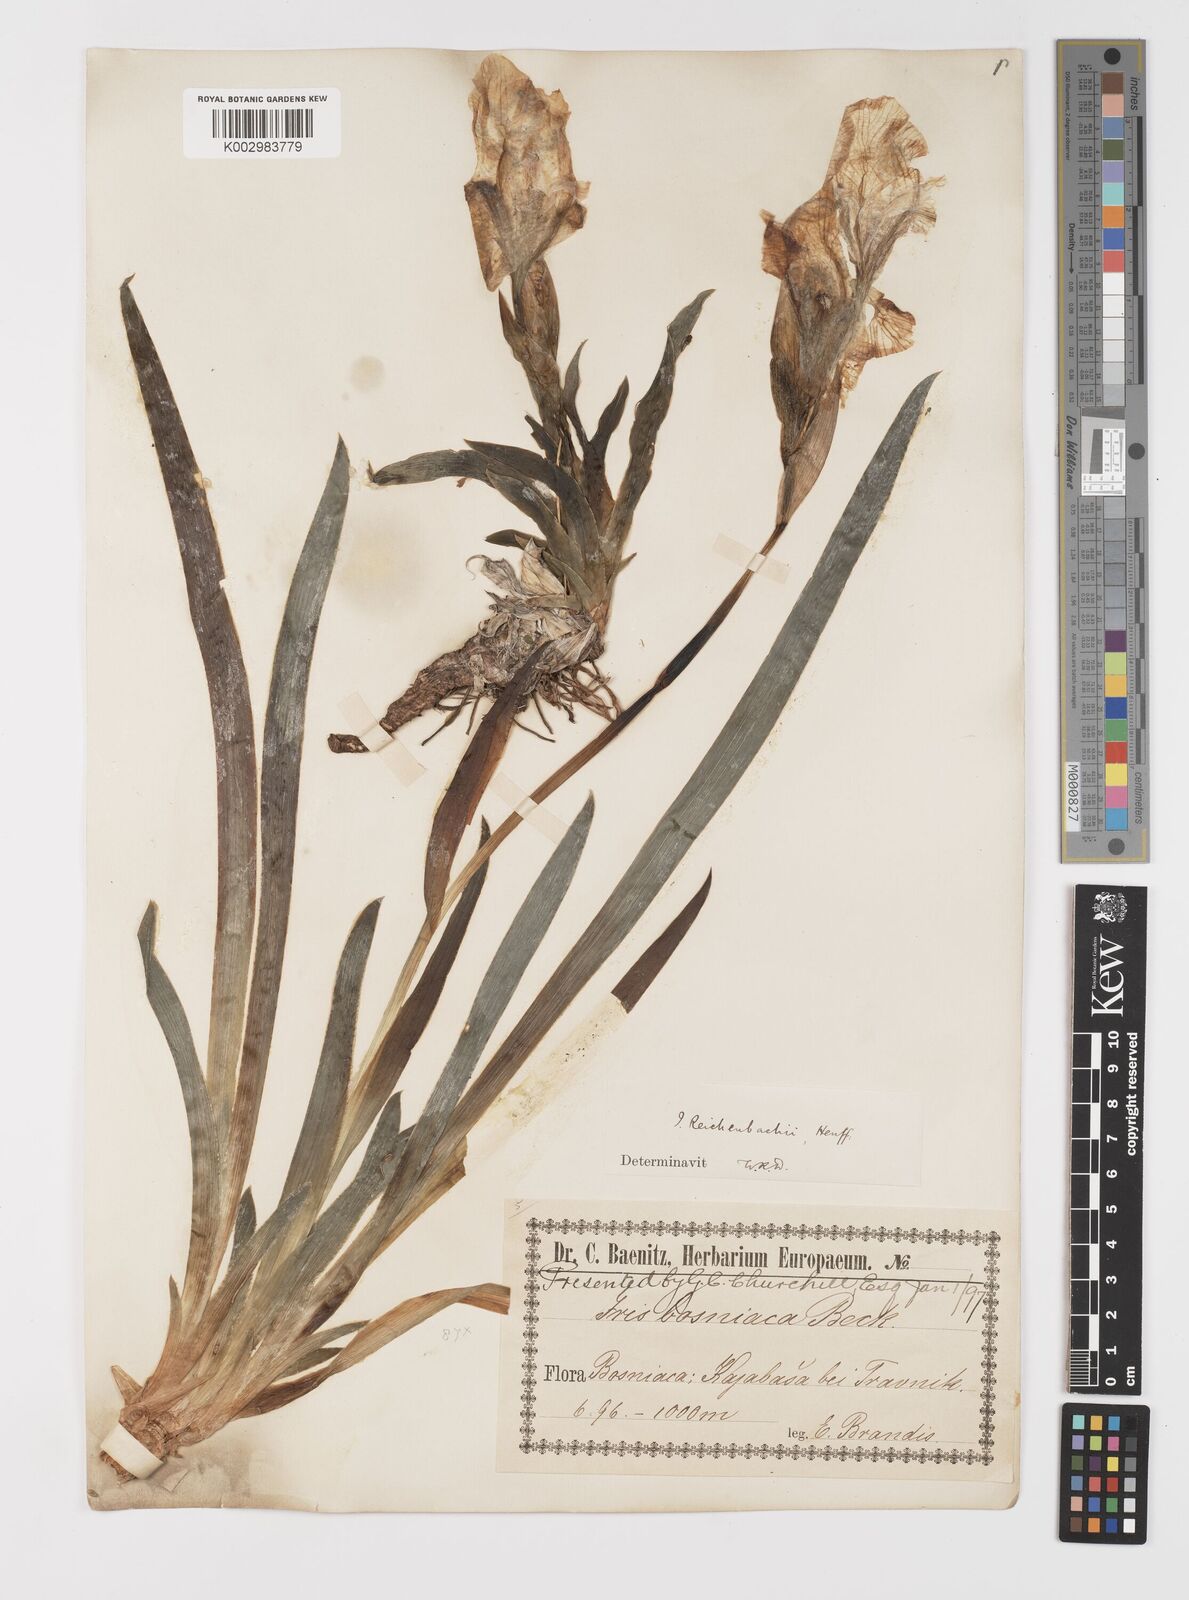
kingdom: Plantae
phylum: Tracheophyta
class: Liliopsida
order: Asparagales
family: Iridaceae
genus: Iris
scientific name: Iris reichenbachii
